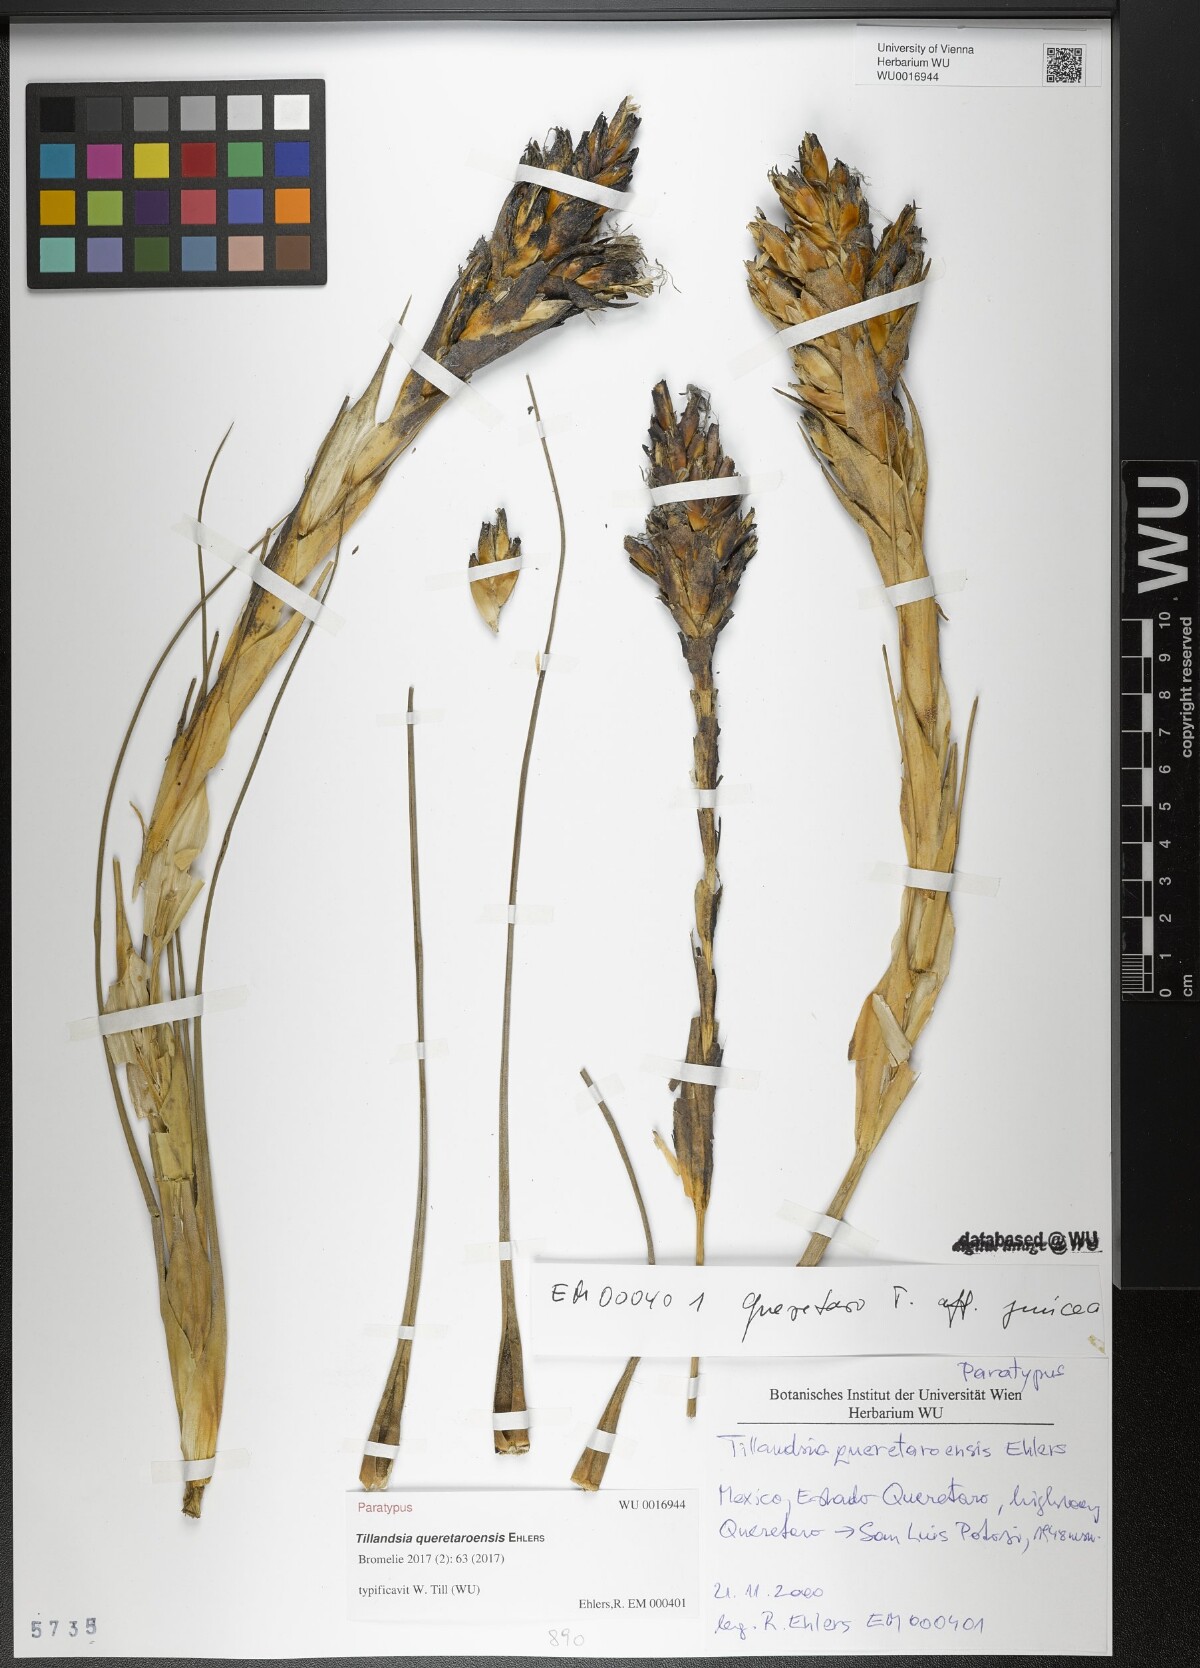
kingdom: Plantae
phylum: Tracheophyta
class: Liliopsida
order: Poales
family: Bromeliaceae
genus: Tillandsia
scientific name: Tillandsia queretaroensis
